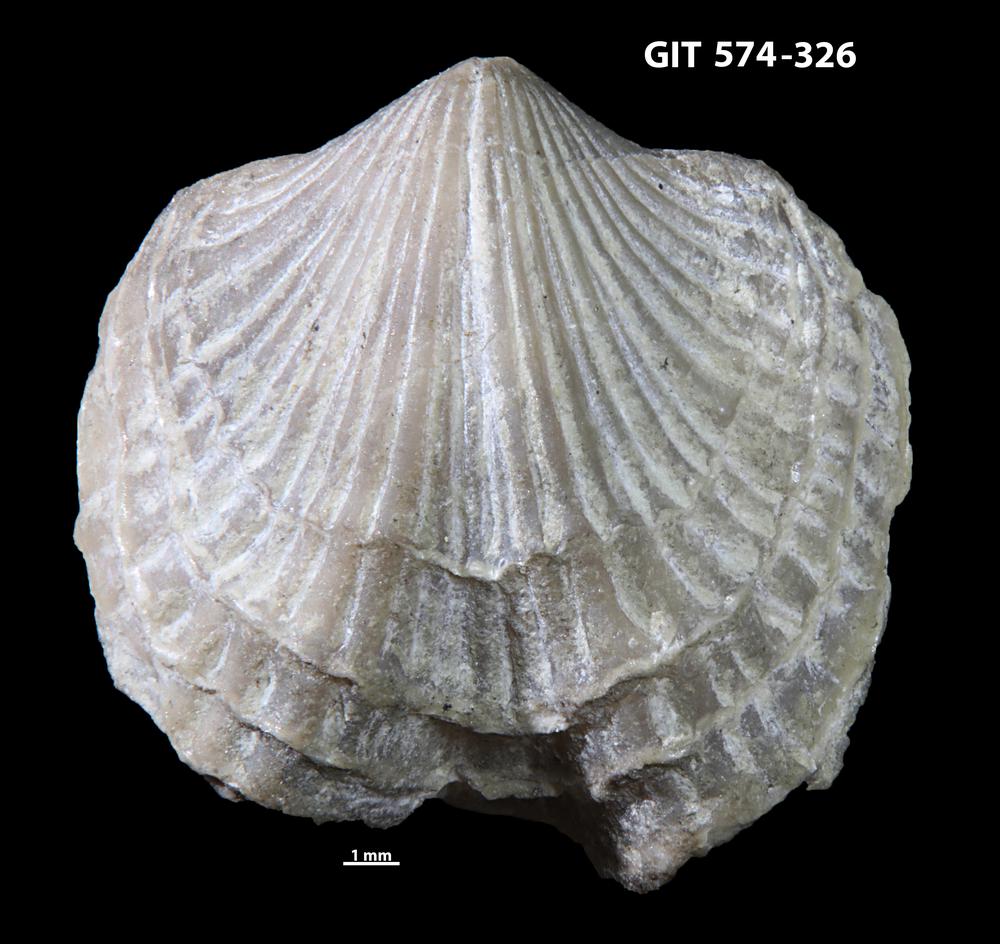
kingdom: Animalia
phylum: Brachiopoda
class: Rhynchonellata
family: Atrypidae
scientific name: Atrypidae
